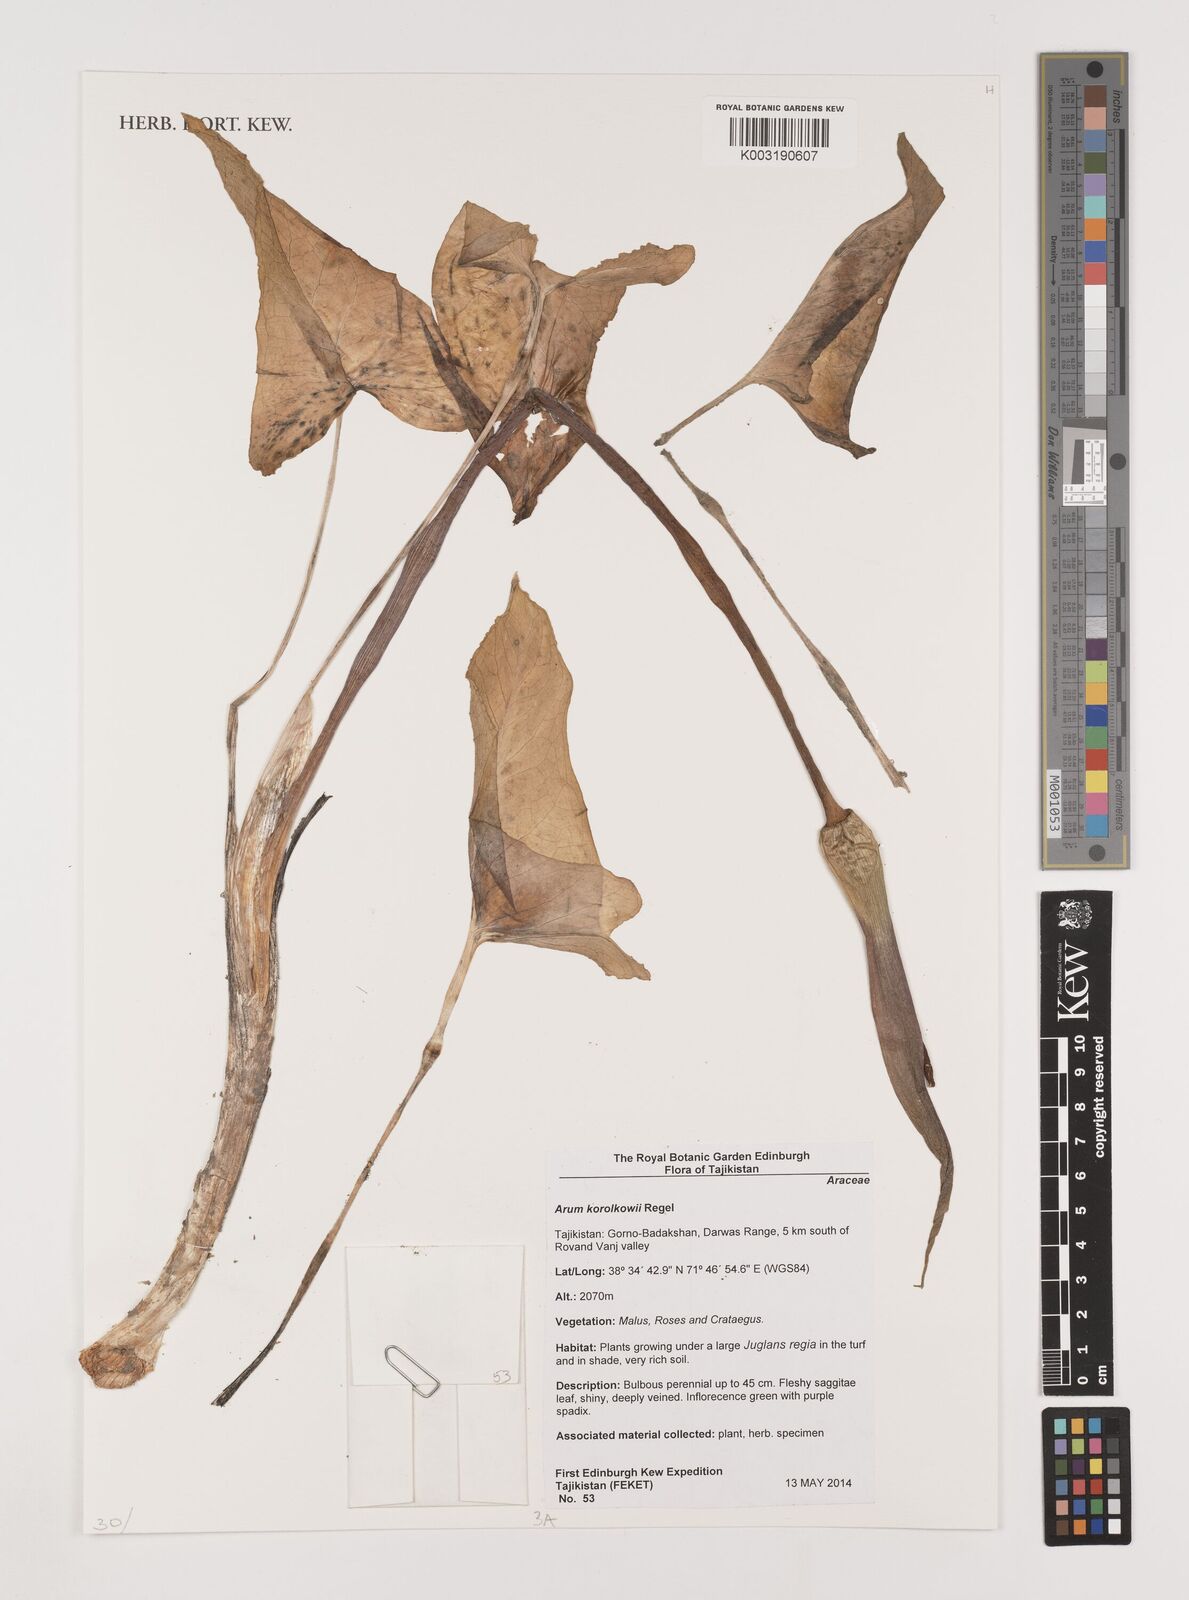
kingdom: Plantae
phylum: Tracheophyta
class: Liliopsida
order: Alismatales
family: Araceae
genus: Arum
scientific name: Arum korolkowii
